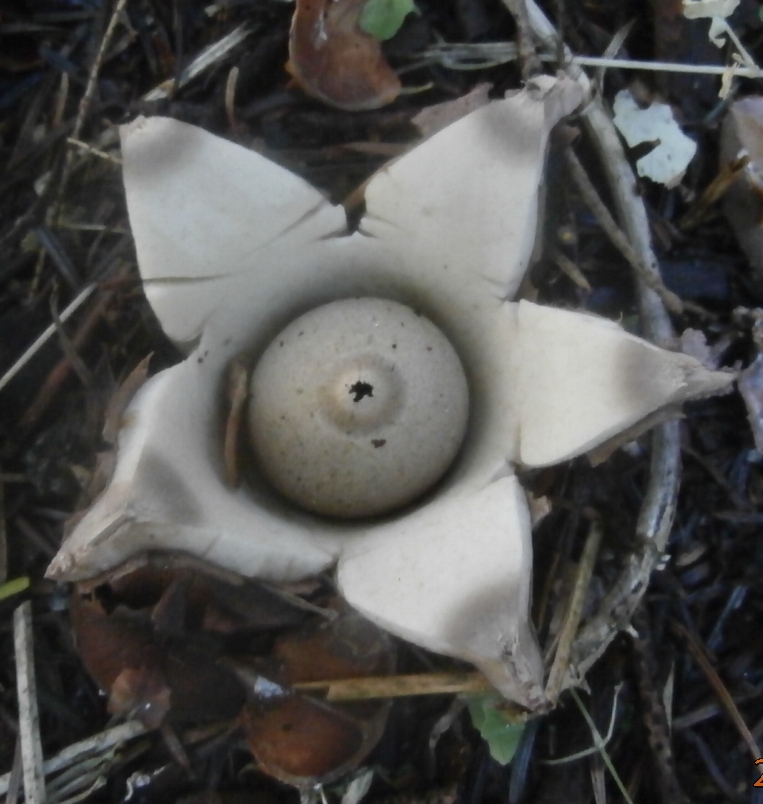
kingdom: Fungi
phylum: Basidiomycota
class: Agaricomycetes
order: Geastrales
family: Geastraceae
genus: Geastrum
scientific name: Geastrum michelianum
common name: kødet stjernebold
